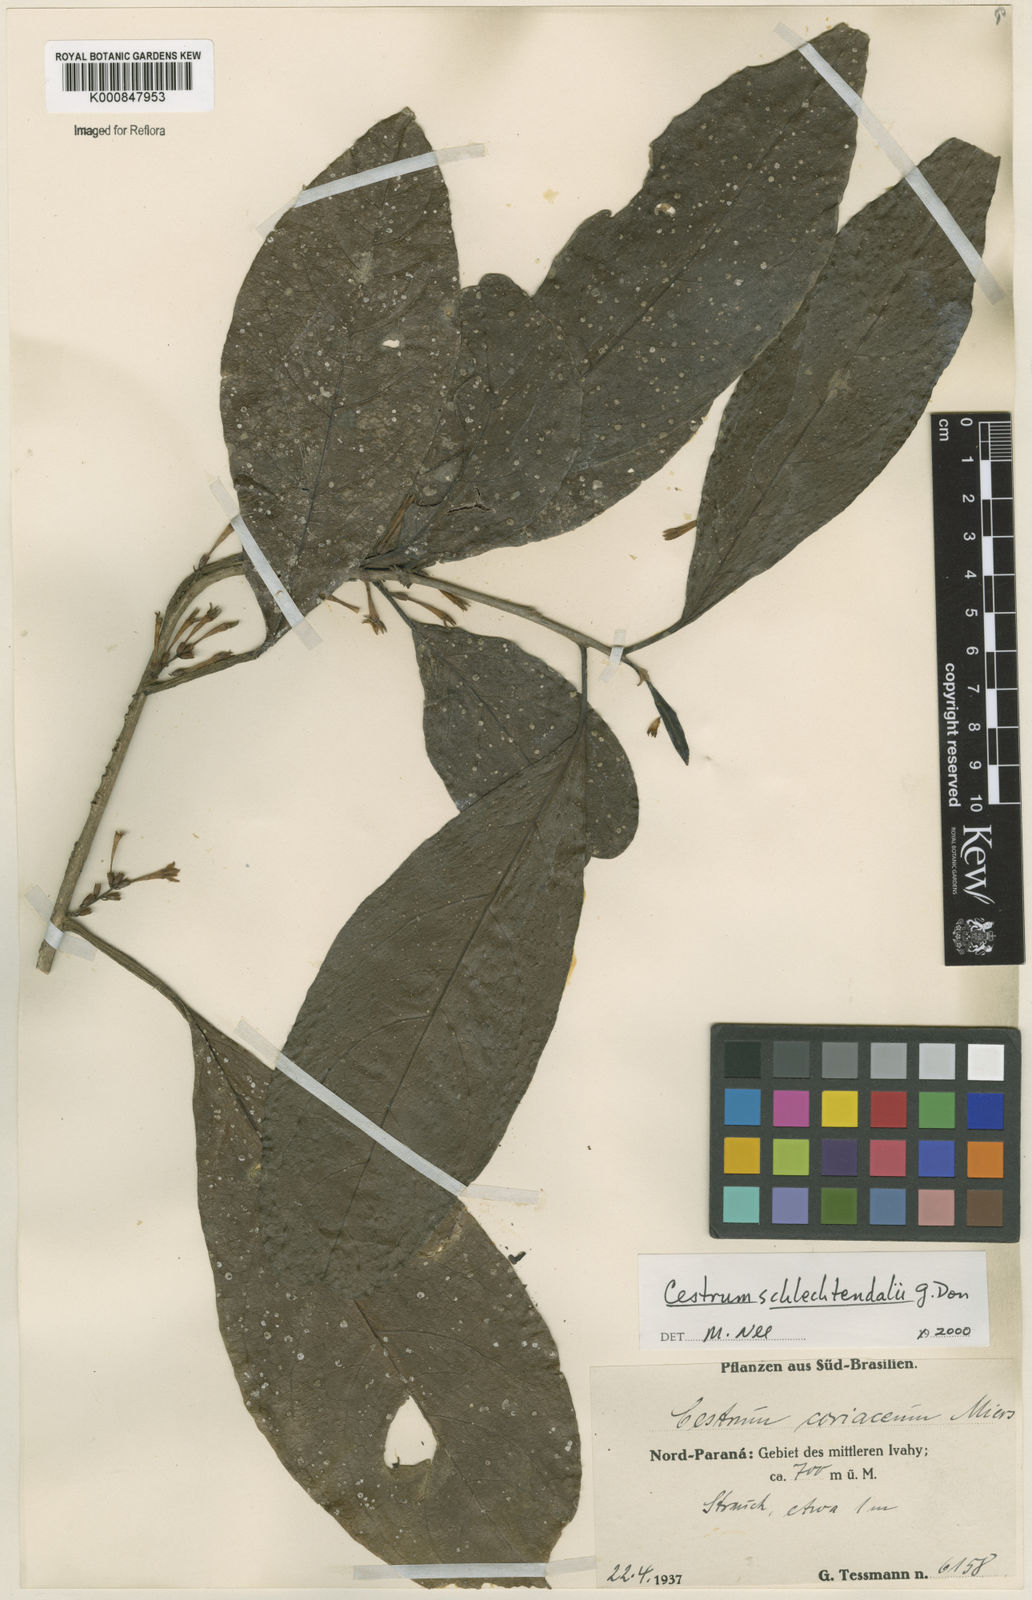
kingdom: Plantae
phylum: Tracheophyta
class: Magnoliopsida
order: Solanales
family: Solanaceae
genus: Cestrum
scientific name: Cestrum schlechtendalii
